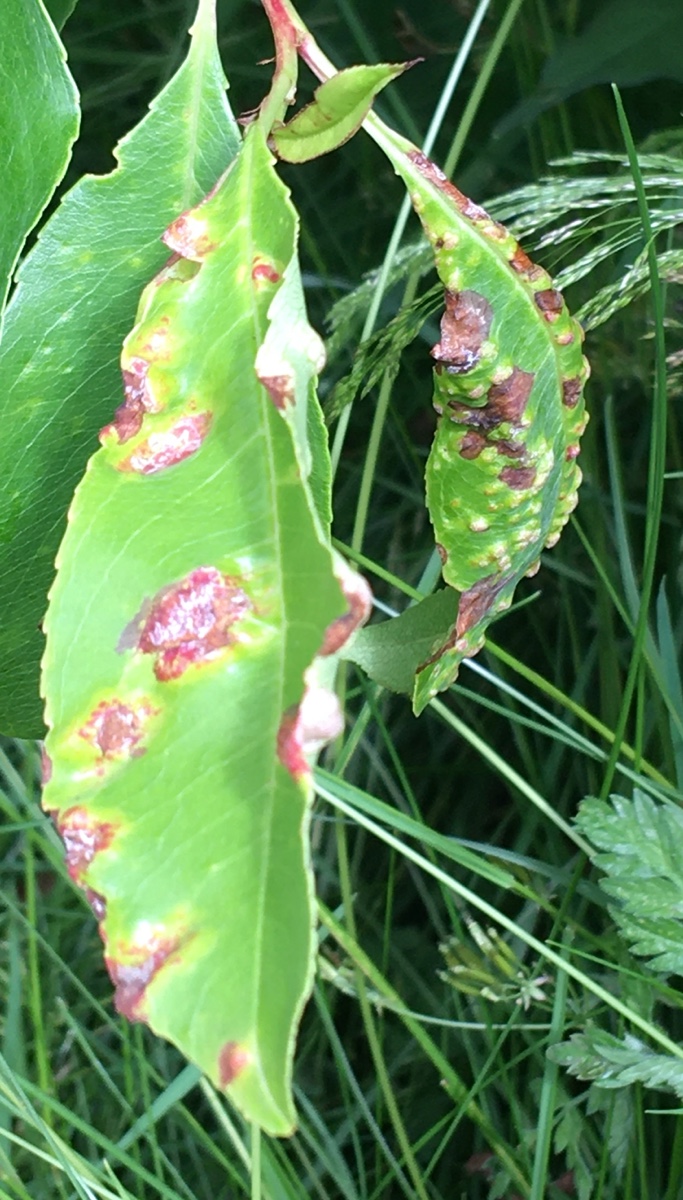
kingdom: Fungi
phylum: Ascomycota
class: Taphrinomycetes
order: Taphrinales
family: Taphrinaceae
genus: Taphrina
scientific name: Taphrina farlowii
